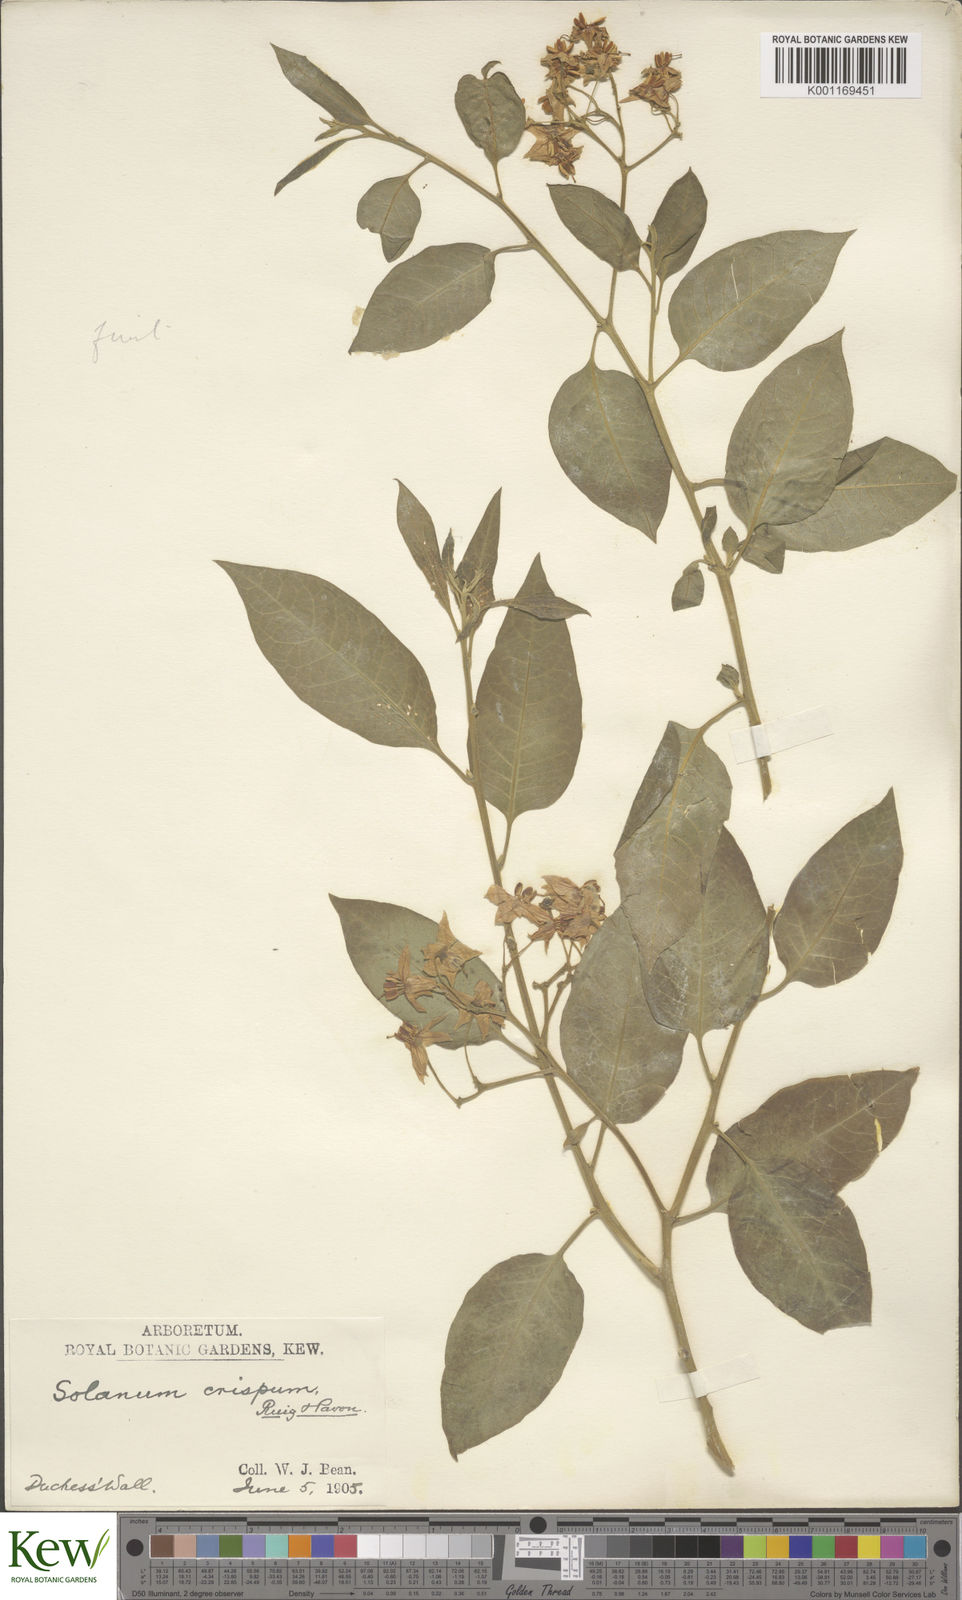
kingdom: Plantae
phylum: Tracheophyta
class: Magnoliopsida
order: Solanales
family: Solanaceae
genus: Solanum
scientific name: Solanum crispum
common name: Chilean nightshade
